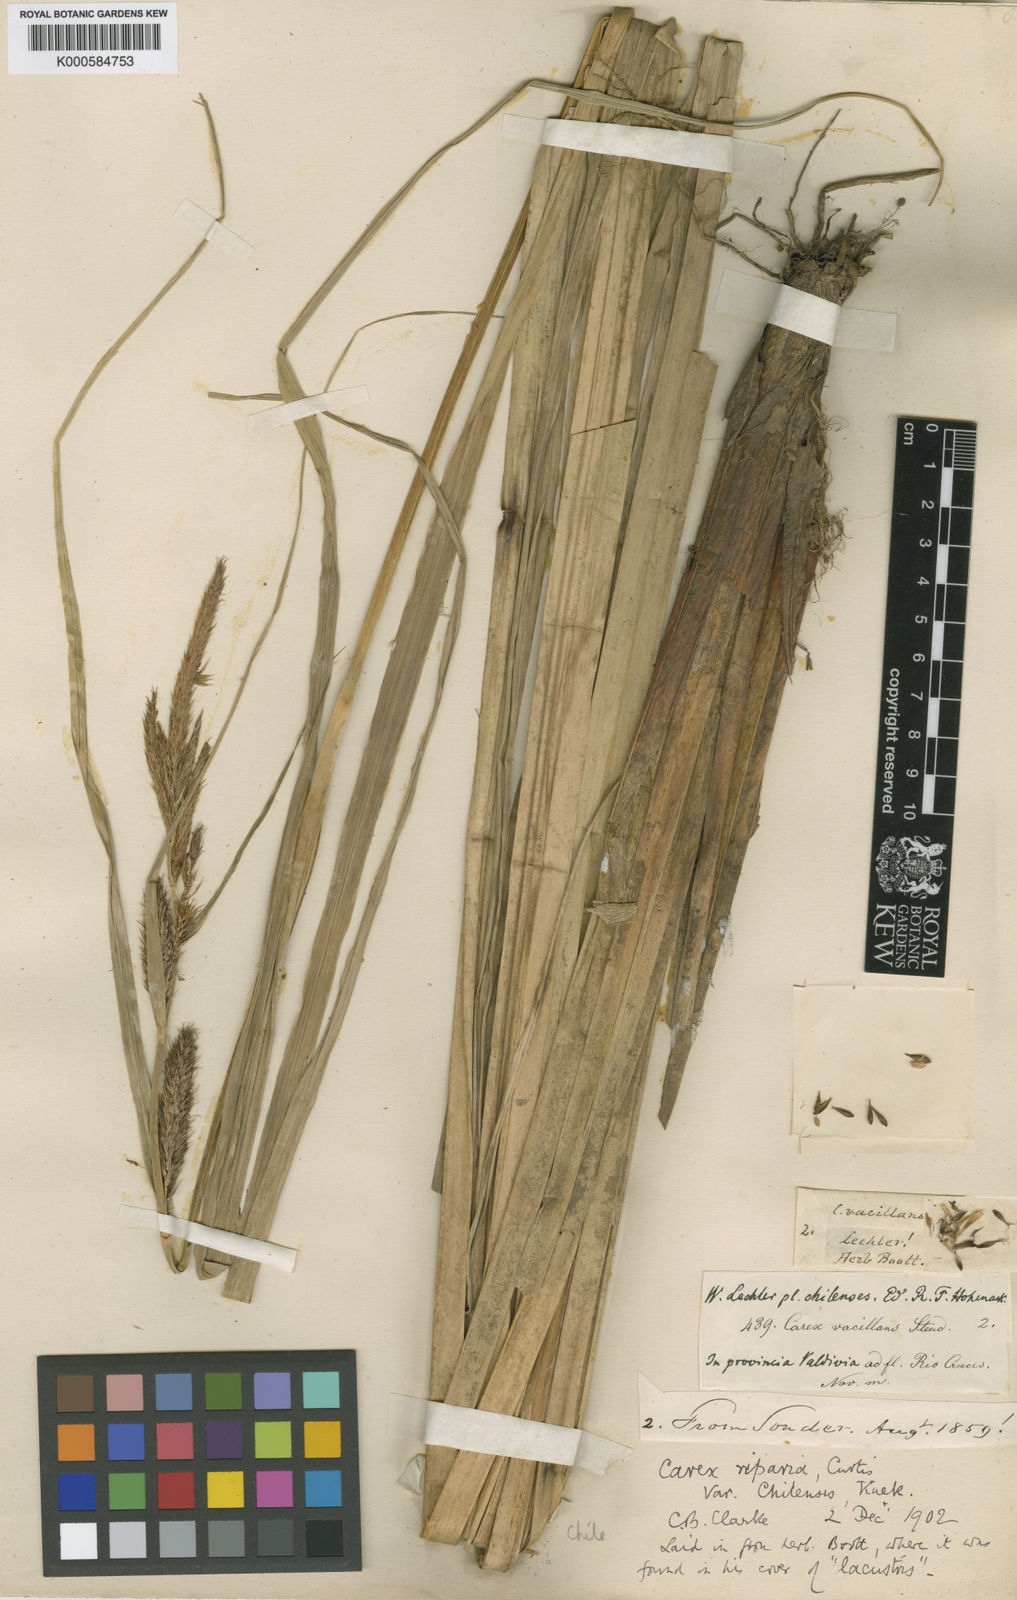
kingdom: Plantae
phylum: Tracheophyta
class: Liliopsida
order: Poales
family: Cyperaceae
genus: Carex
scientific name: Carex riparia
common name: Greater pond-sedge
